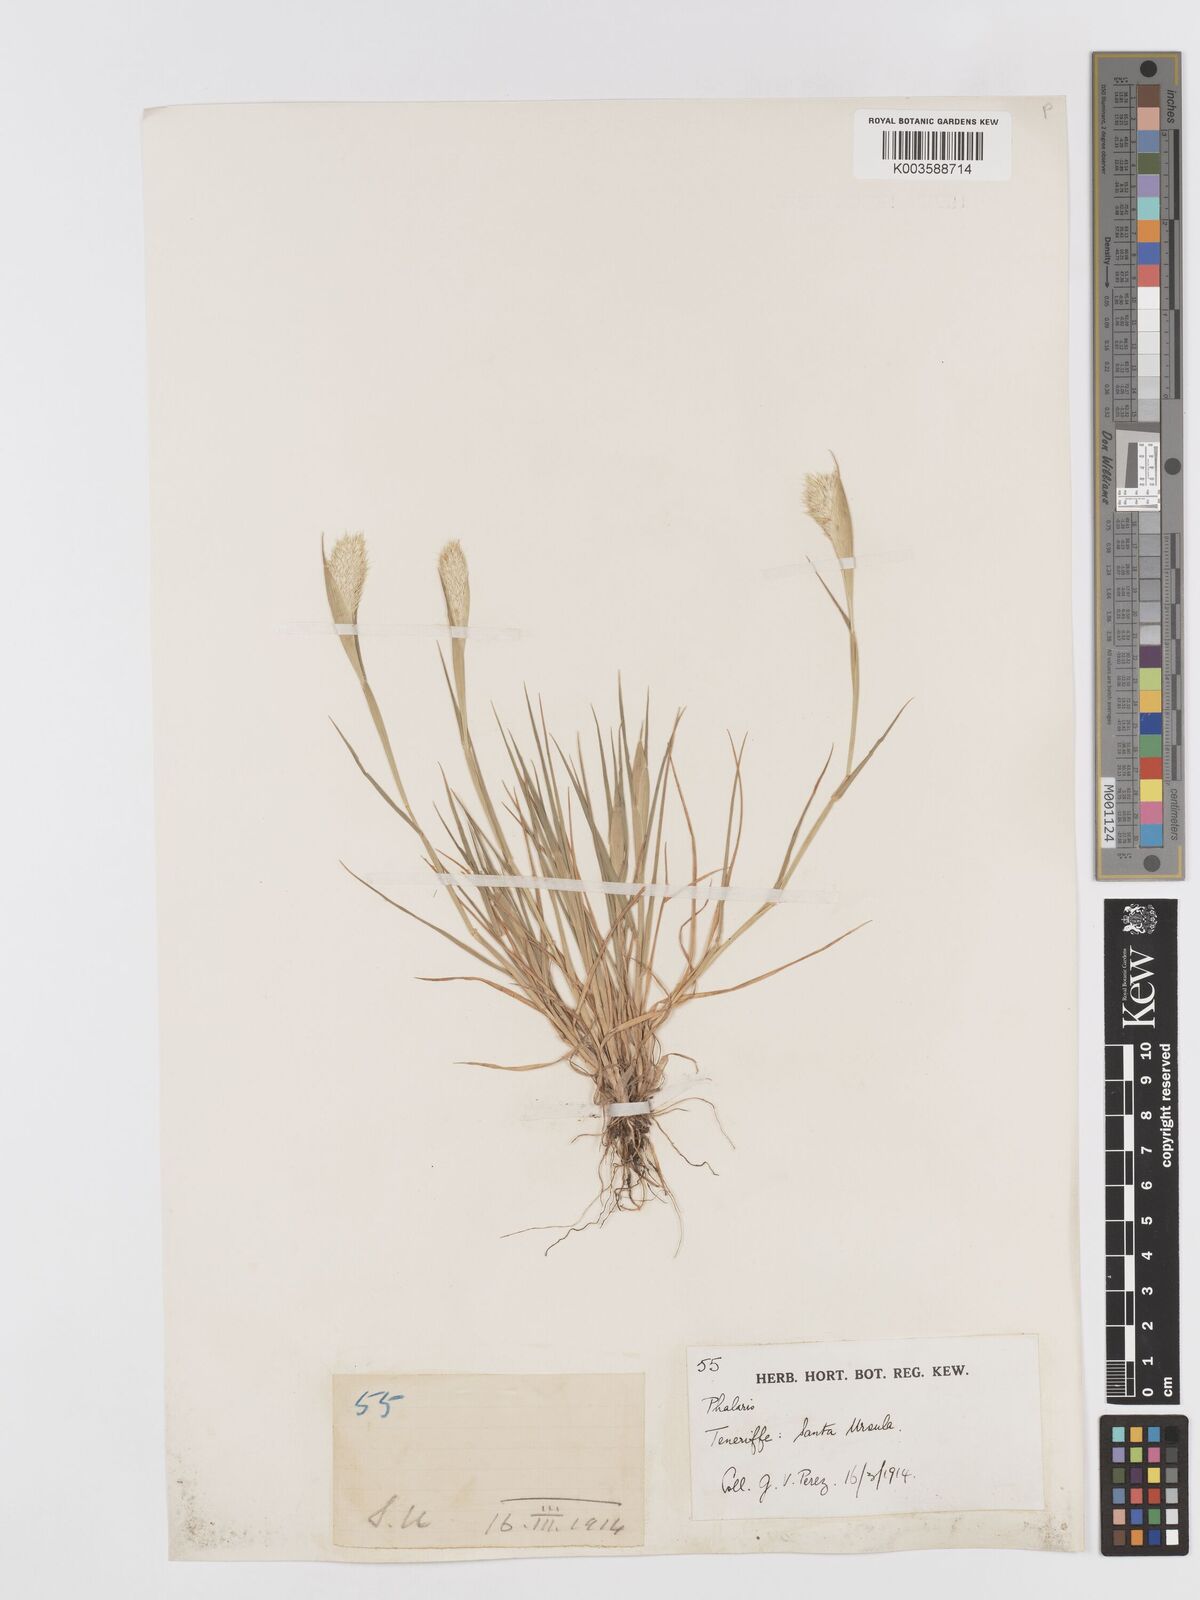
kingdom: Plantae
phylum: Tracheophyta
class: Liliopsida
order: Poales
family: Poaceae
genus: Phalaris
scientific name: Phalaris paradoxa
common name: Awned canary-grass
